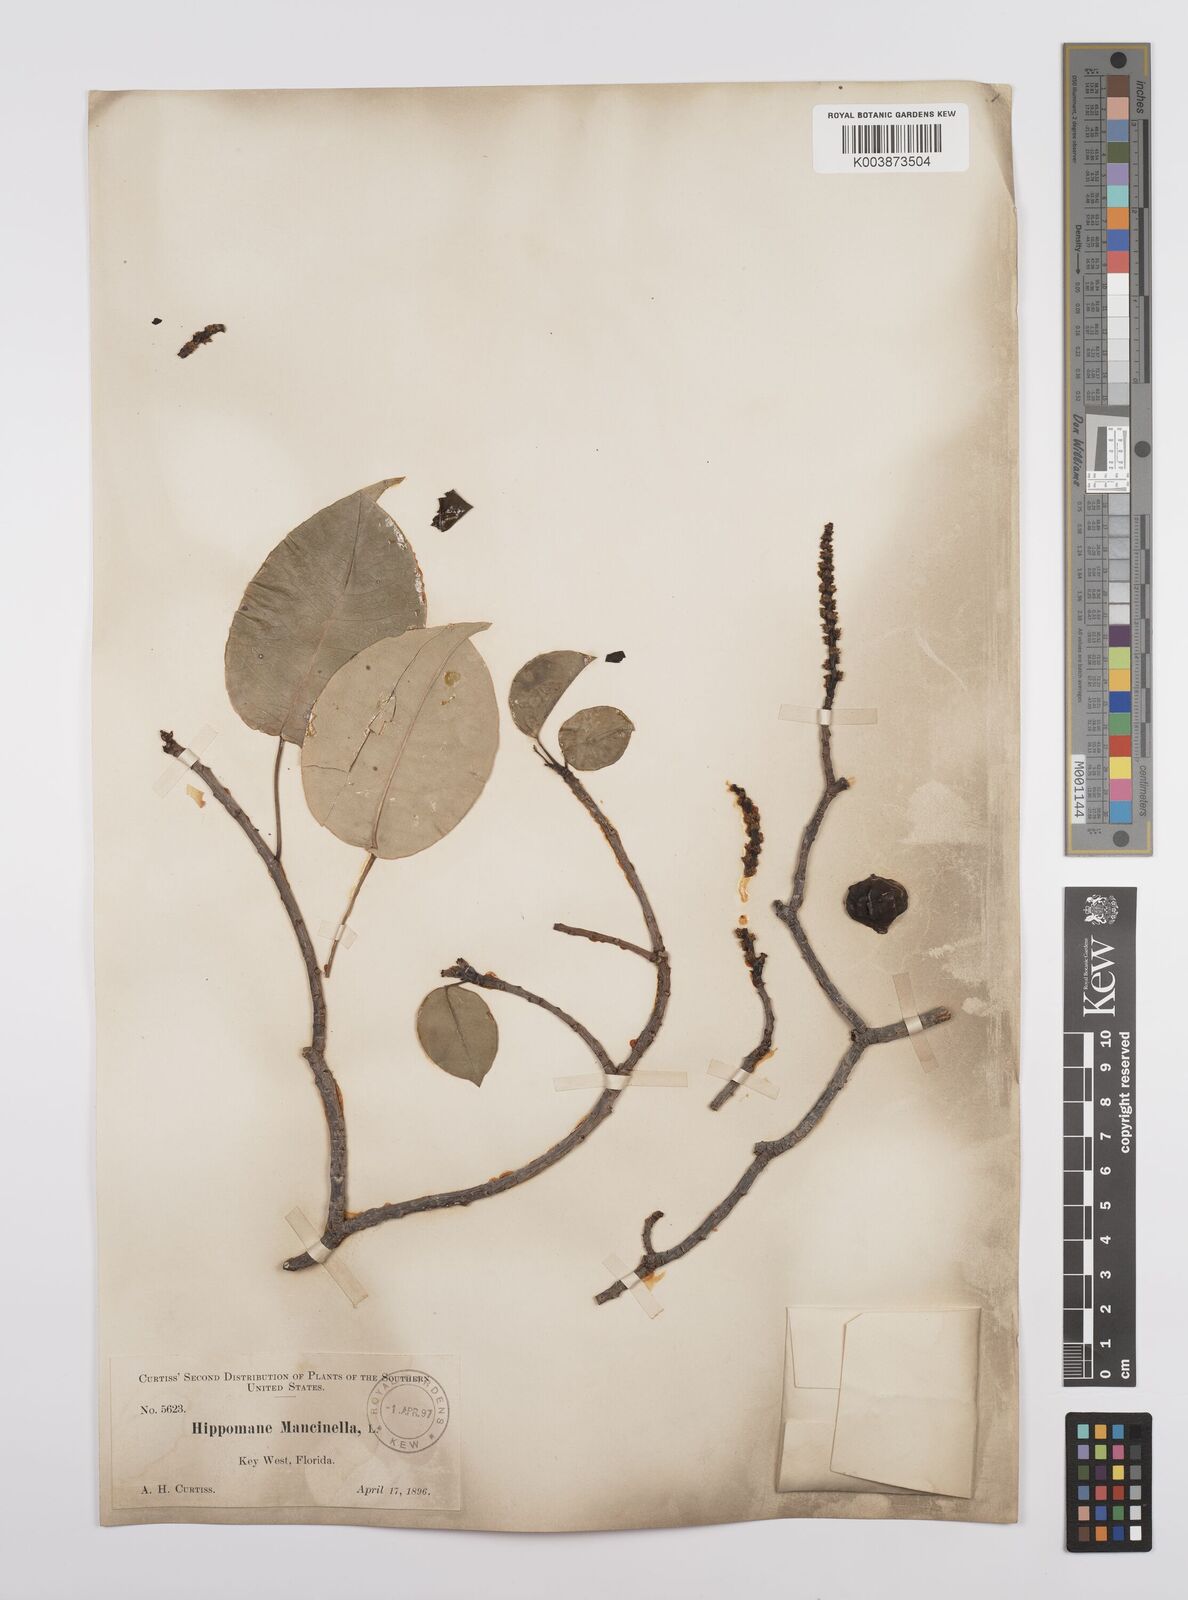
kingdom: Plantae
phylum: Tracheophyta
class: Magnoliopsida
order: Malpighiales
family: Euphorbiaceae
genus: Hippomane
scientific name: Hippomane mancinella
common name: Manchineel
